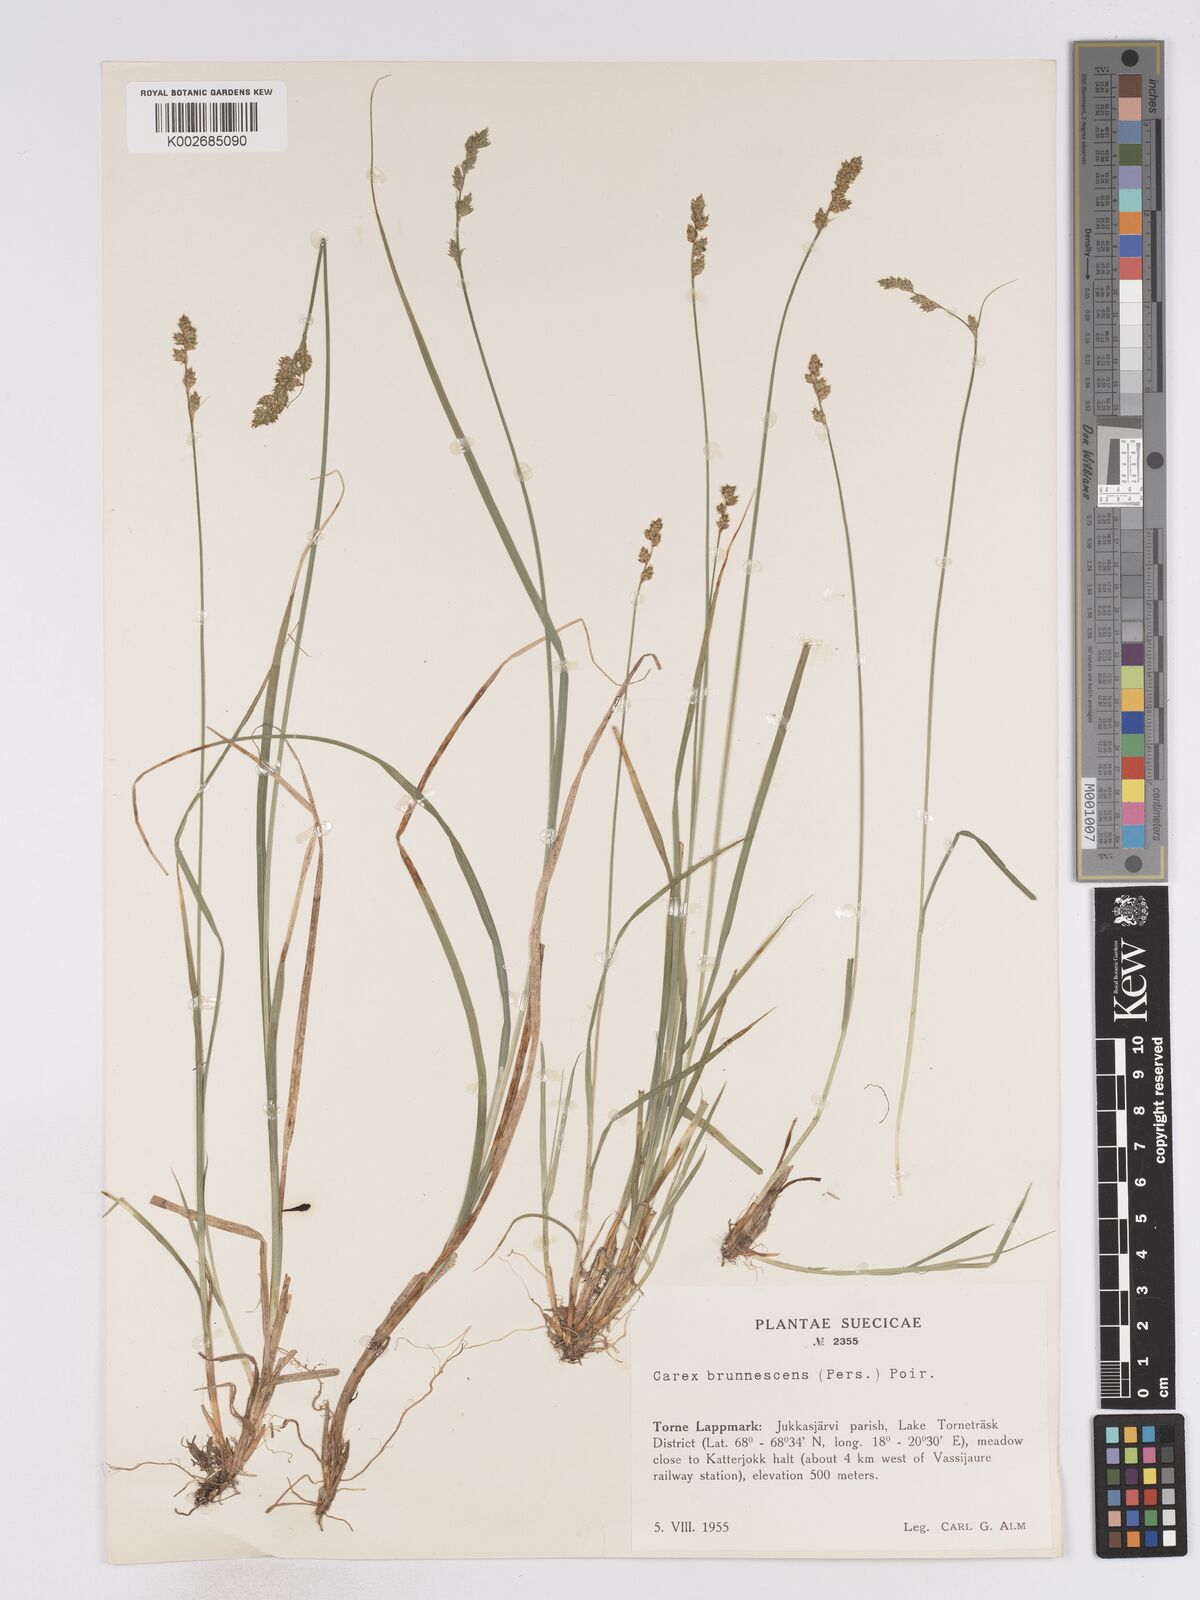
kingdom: Plantae
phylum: Tracheophyta
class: Liliopsida
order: Poales
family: Cyperaceae
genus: Carex
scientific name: Carex brunnescens
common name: Brown sedge
